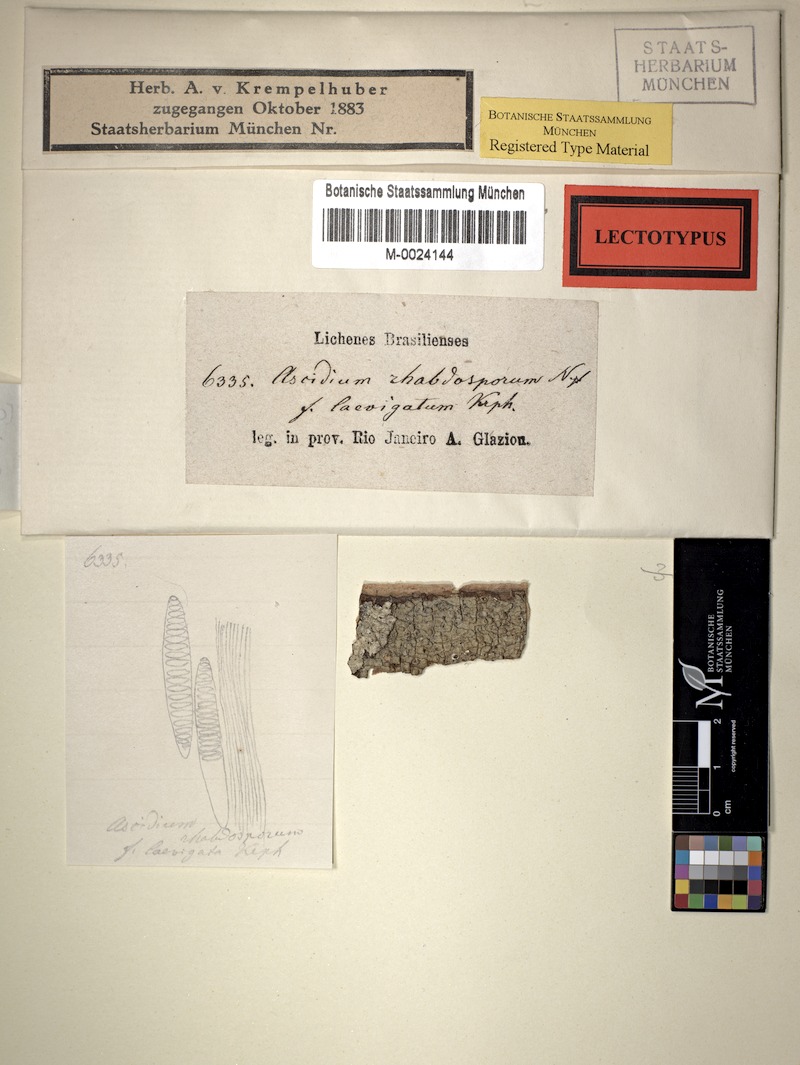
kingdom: Fungi
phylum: Ascomycota
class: Lecanoromycetes
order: Ostropales
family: Graphidaceae
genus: Ocellularia
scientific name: Ocellularia melanostoma
